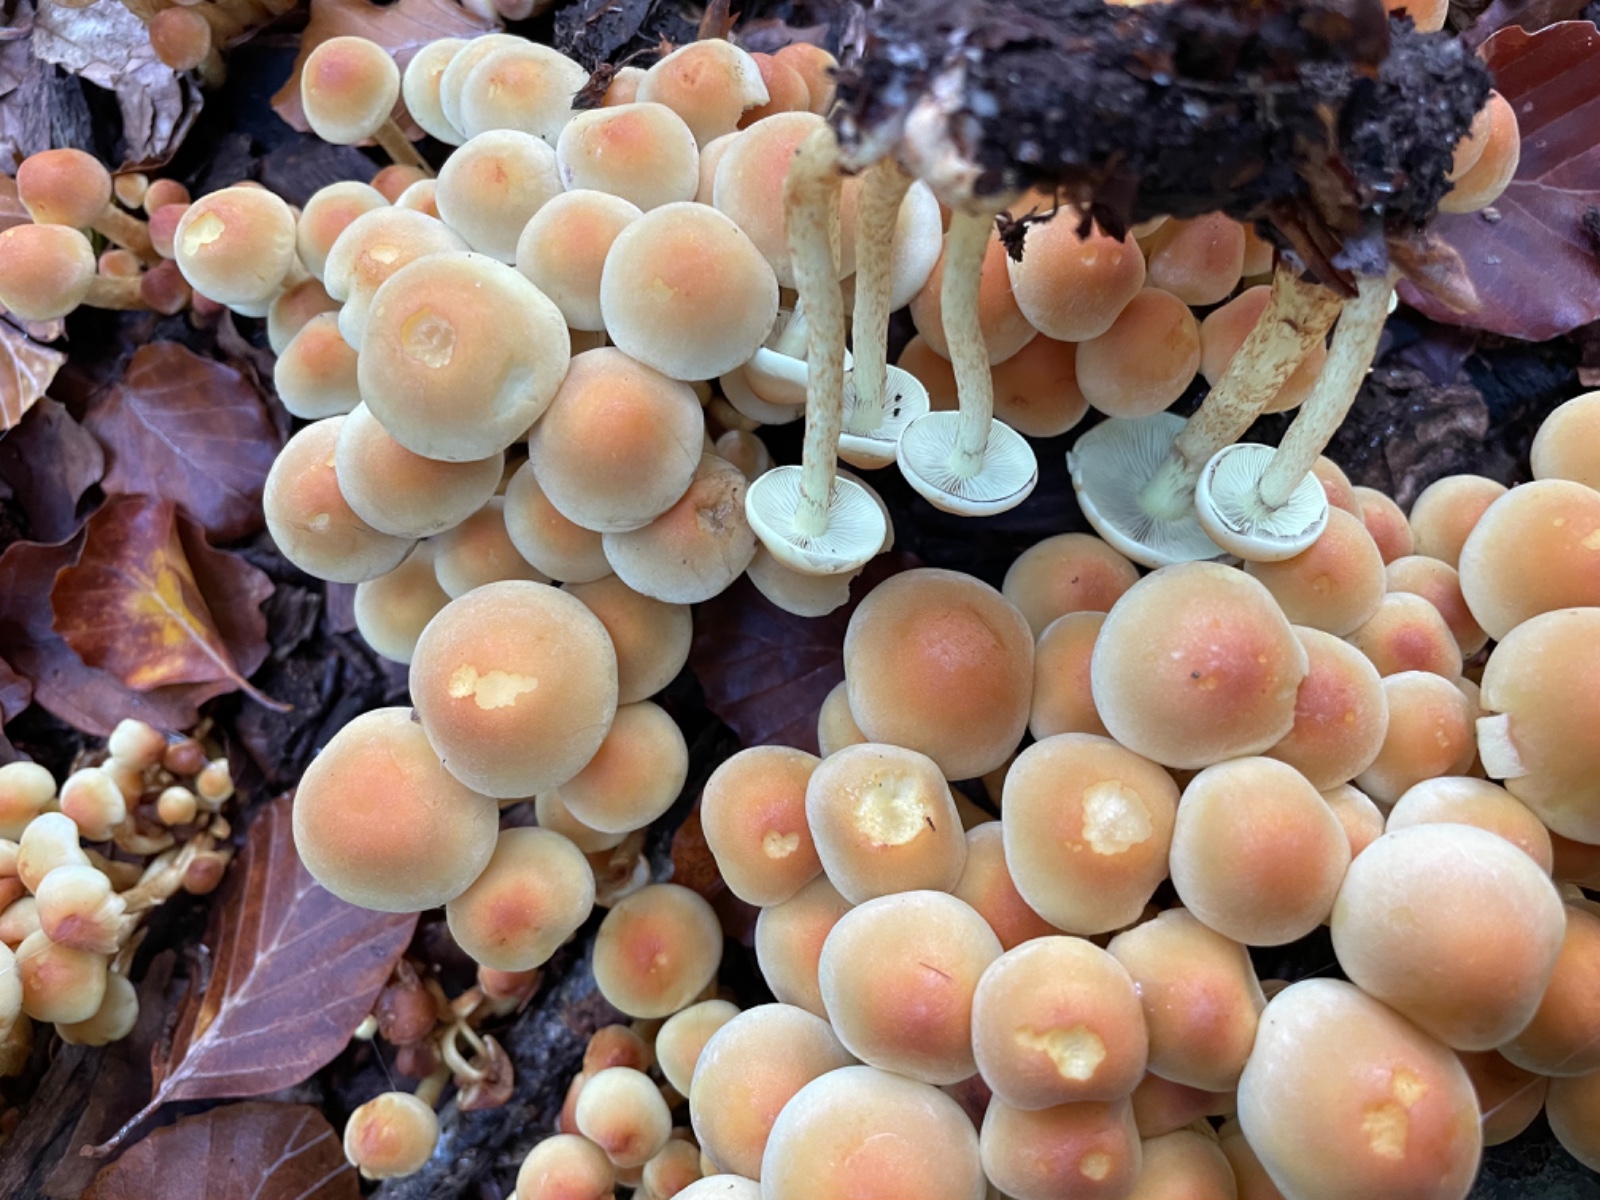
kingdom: Fungi
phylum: Basidiomycota
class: Agaricomycetes
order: Agaricales
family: Strophariaceae
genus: Hypholoma
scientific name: Hypholoma
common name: svovlhat
